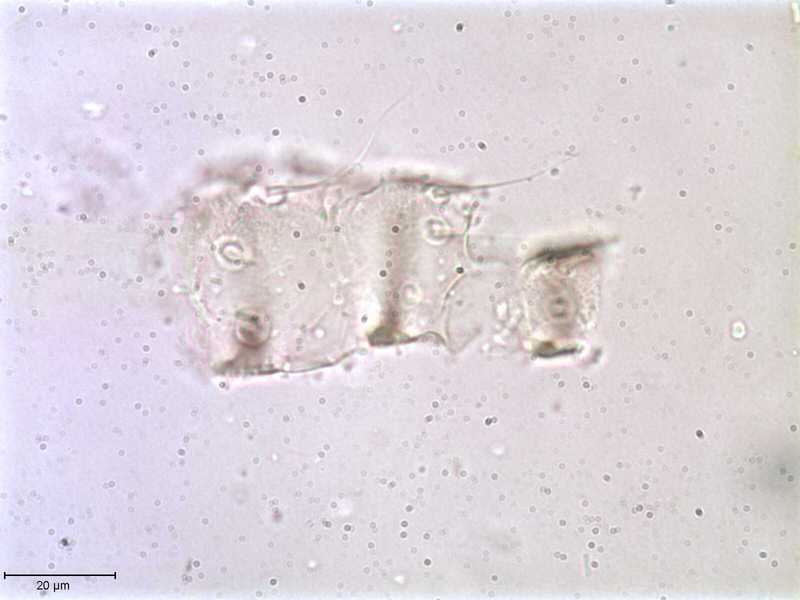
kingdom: Animalia
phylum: Arthropoda
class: Arachnida
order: Mesostigmata
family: Halarachnidae
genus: Orthohalarachne
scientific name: Orthohalarachne letalis
